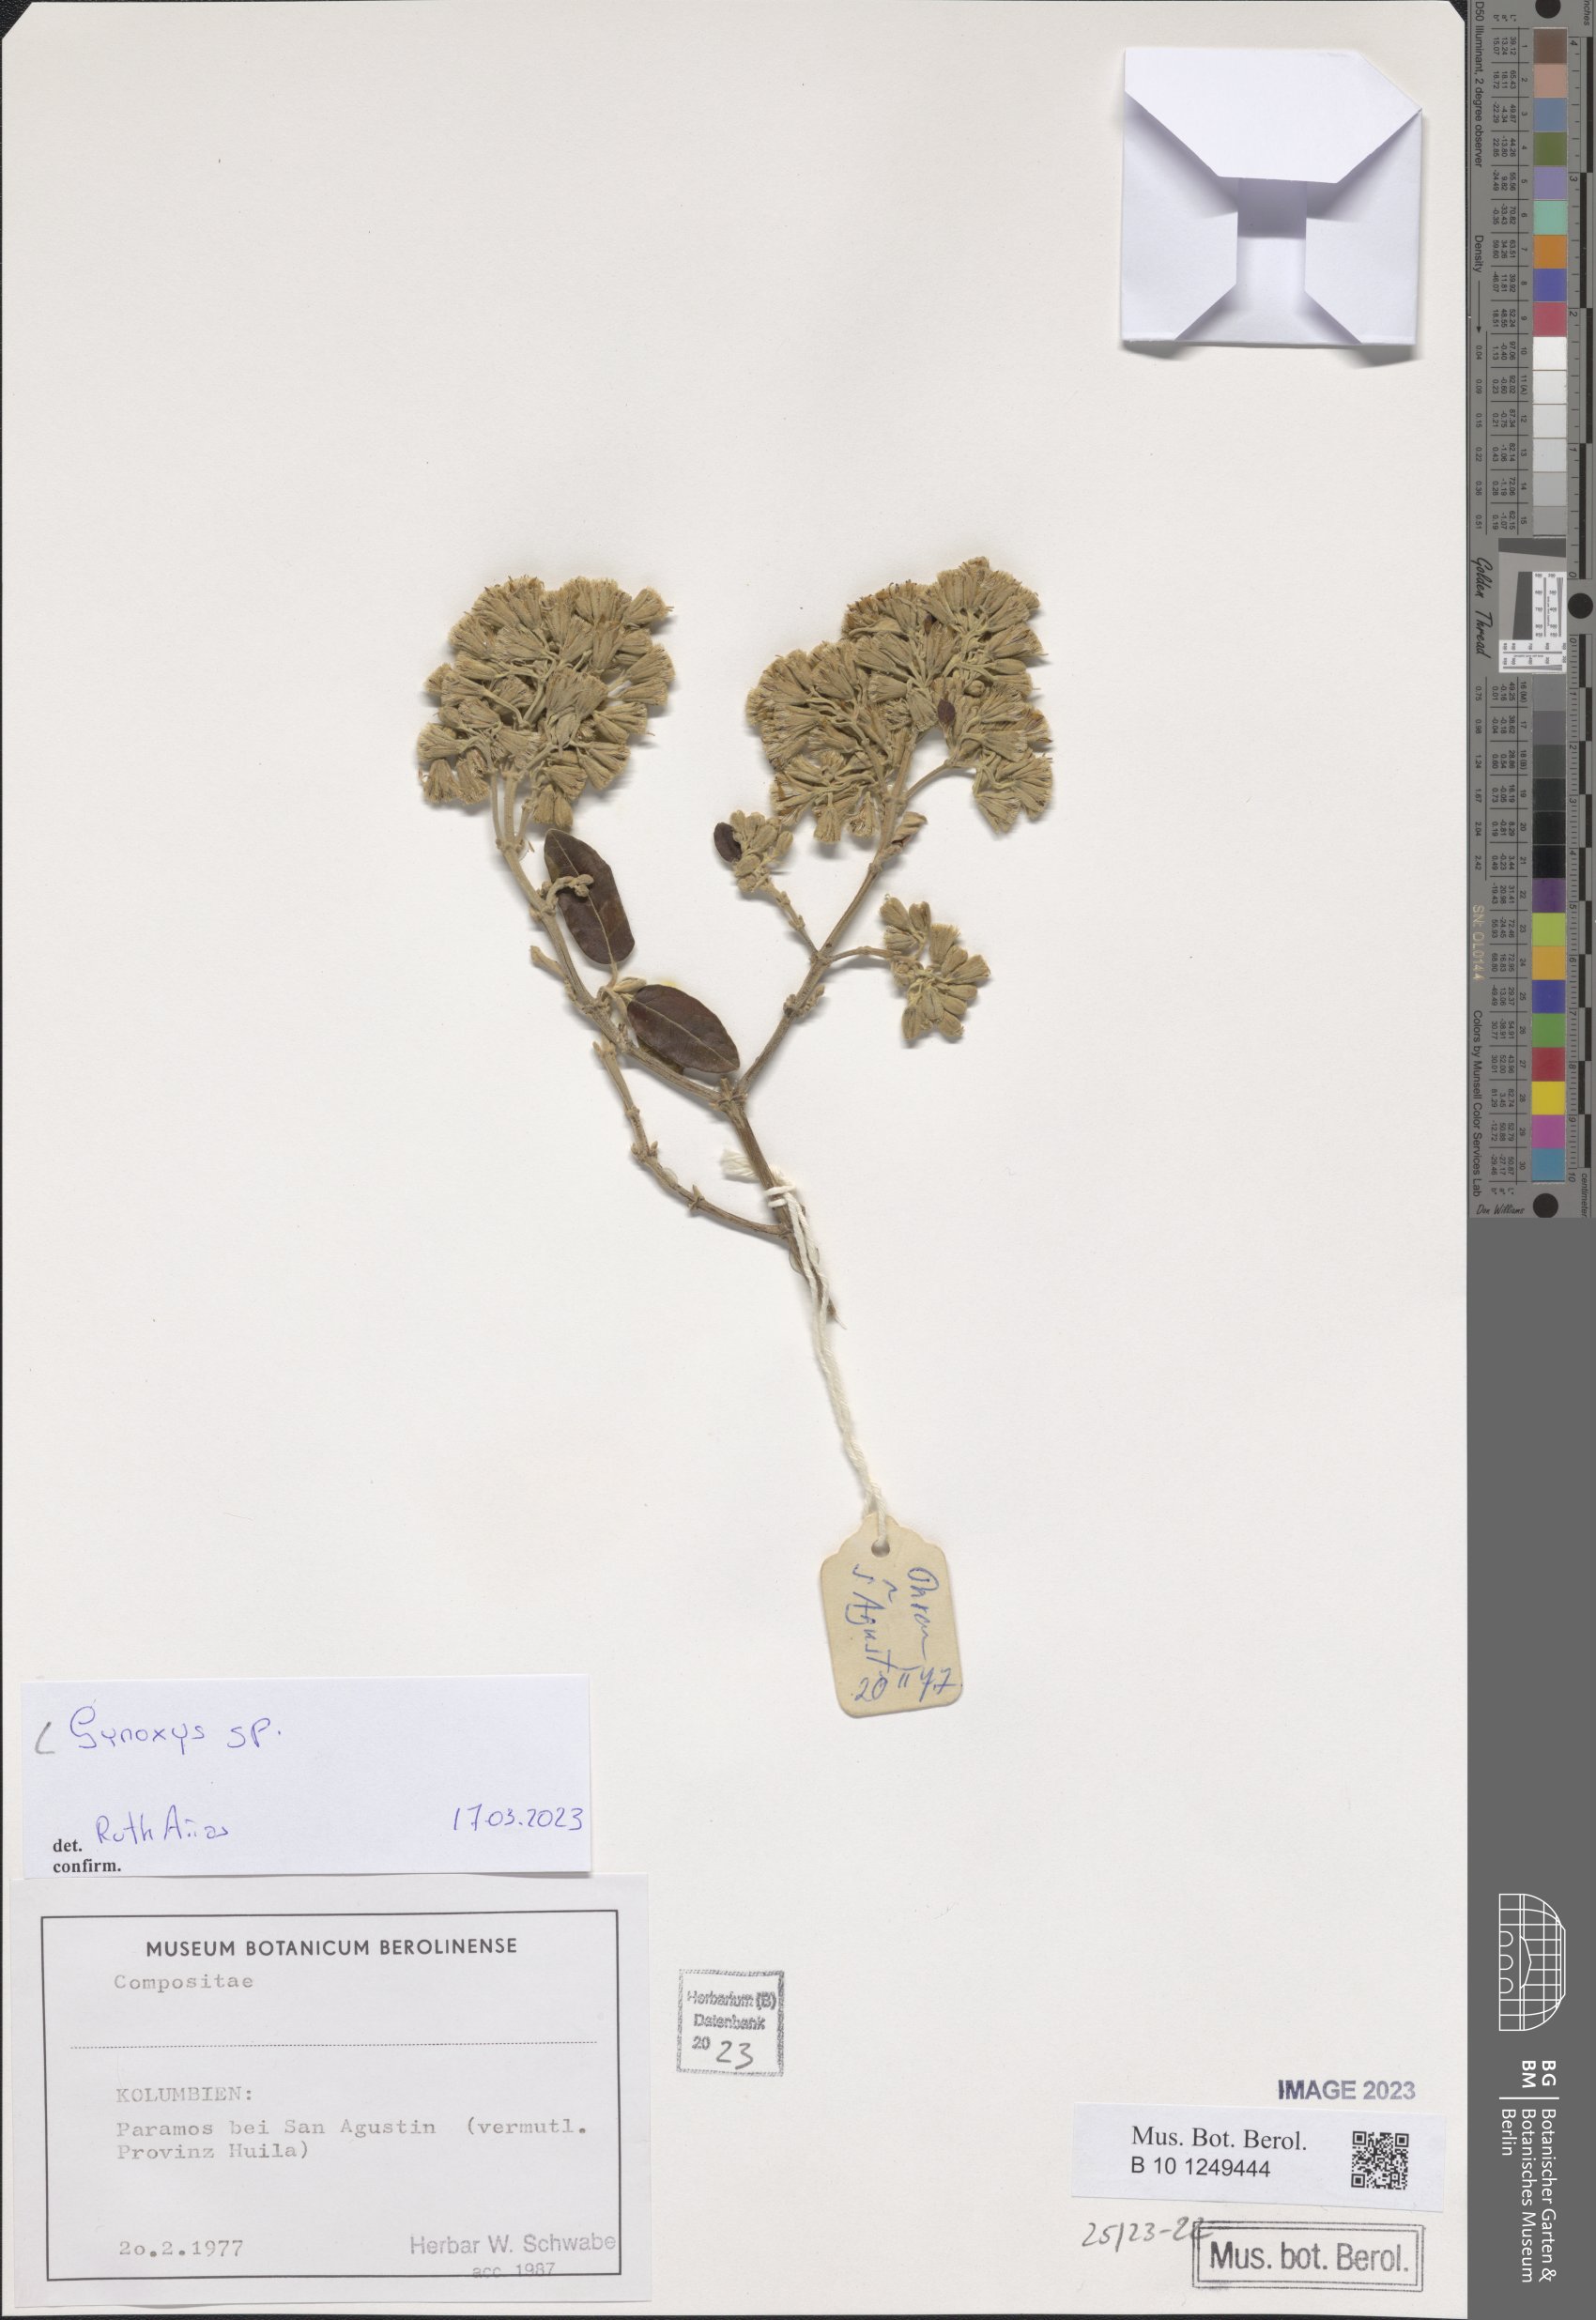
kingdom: Plantae
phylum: Tracheophyta
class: Magnoliopsida
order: Asterales
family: Asteraceae
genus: Gynoxys
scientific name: Gynoxys
